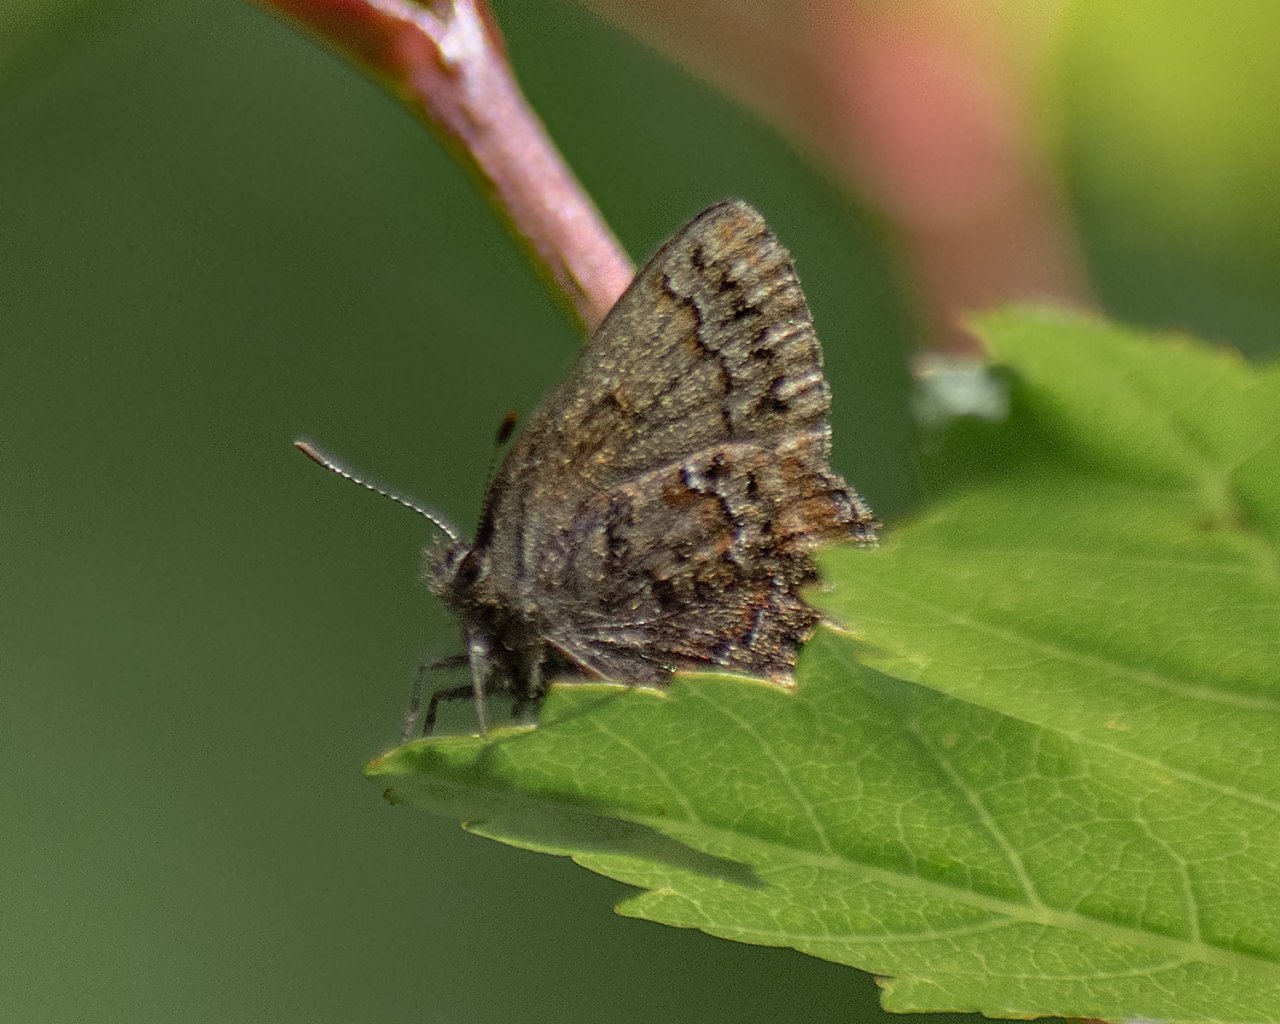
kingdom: Animalia
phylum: Arthropoda
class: Insecta
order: Lepidoptera
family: Lycaenidae
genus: Incisalia
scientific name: Incisalia eryphon
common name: Western Pine Elfin
